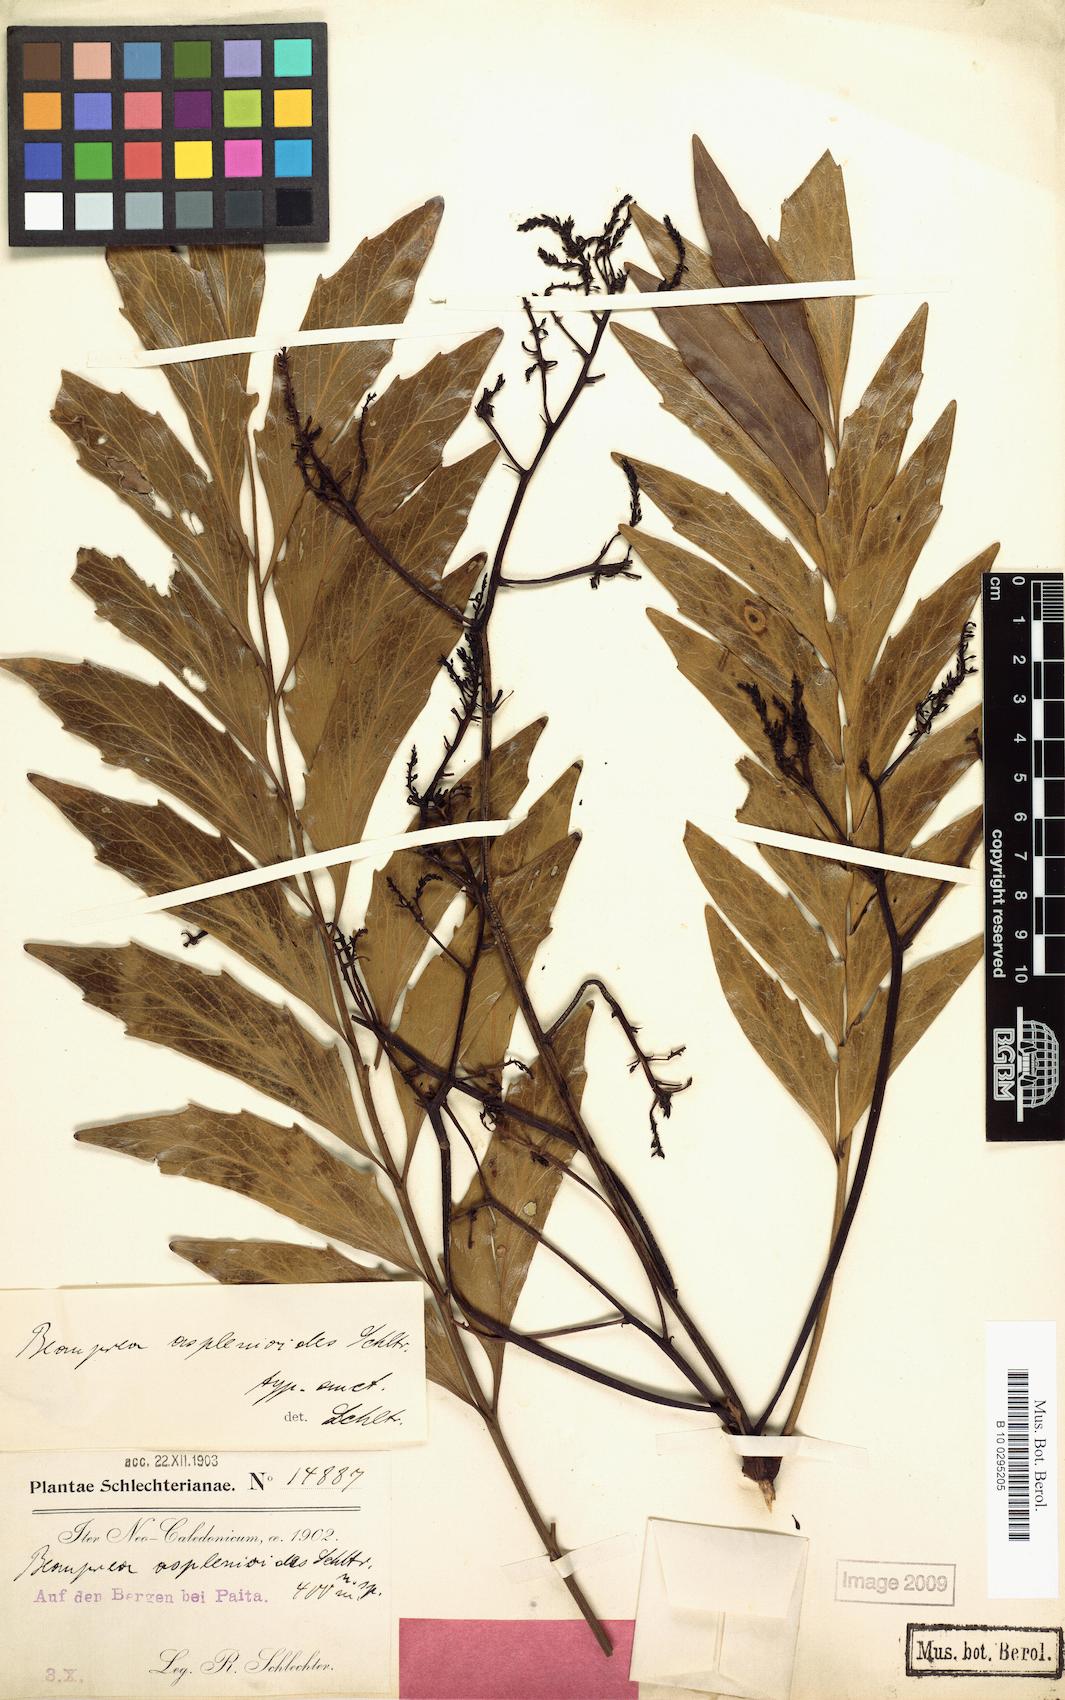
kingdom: Plantae
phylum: Tracheophyta
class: Magnoliopsida
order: Proteales
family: Proteaceae
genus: Beauprea
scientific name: Beauprea asplenioides
